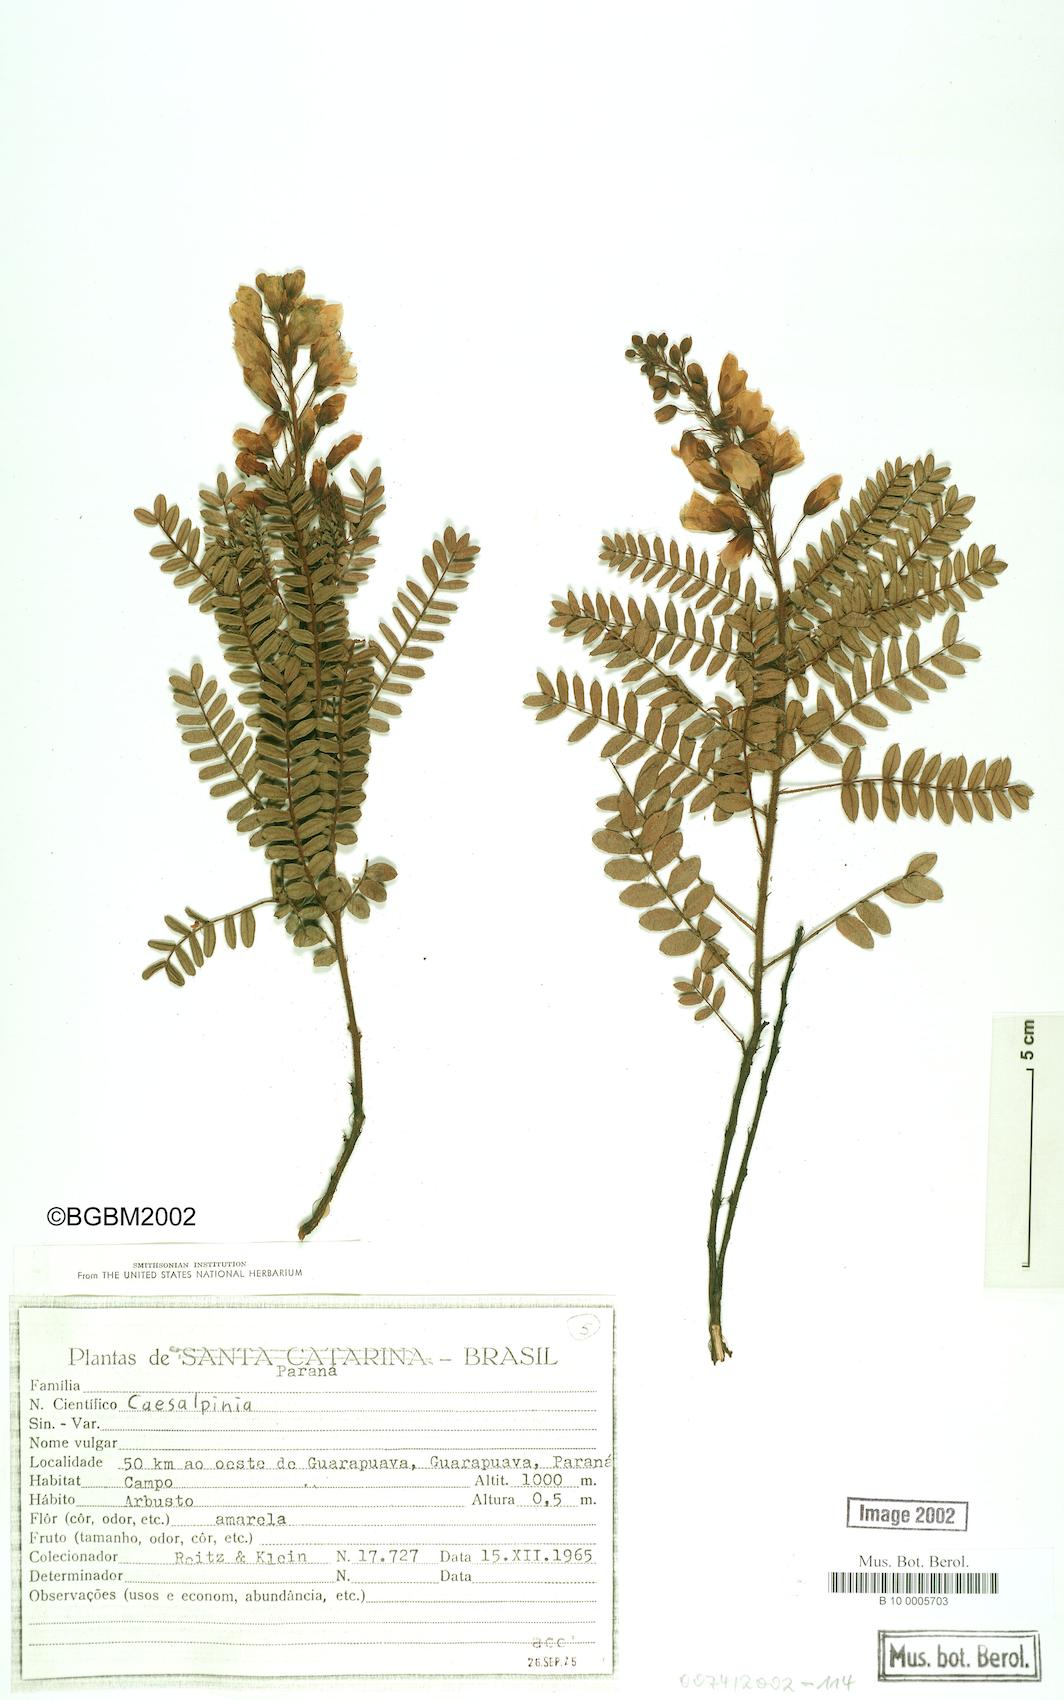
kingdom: Plantae
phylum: Tracheophyta
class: Magnoliopsida
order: Fabales
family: Fabaceae
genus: Chamaecrista
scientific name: Chamaecrista
